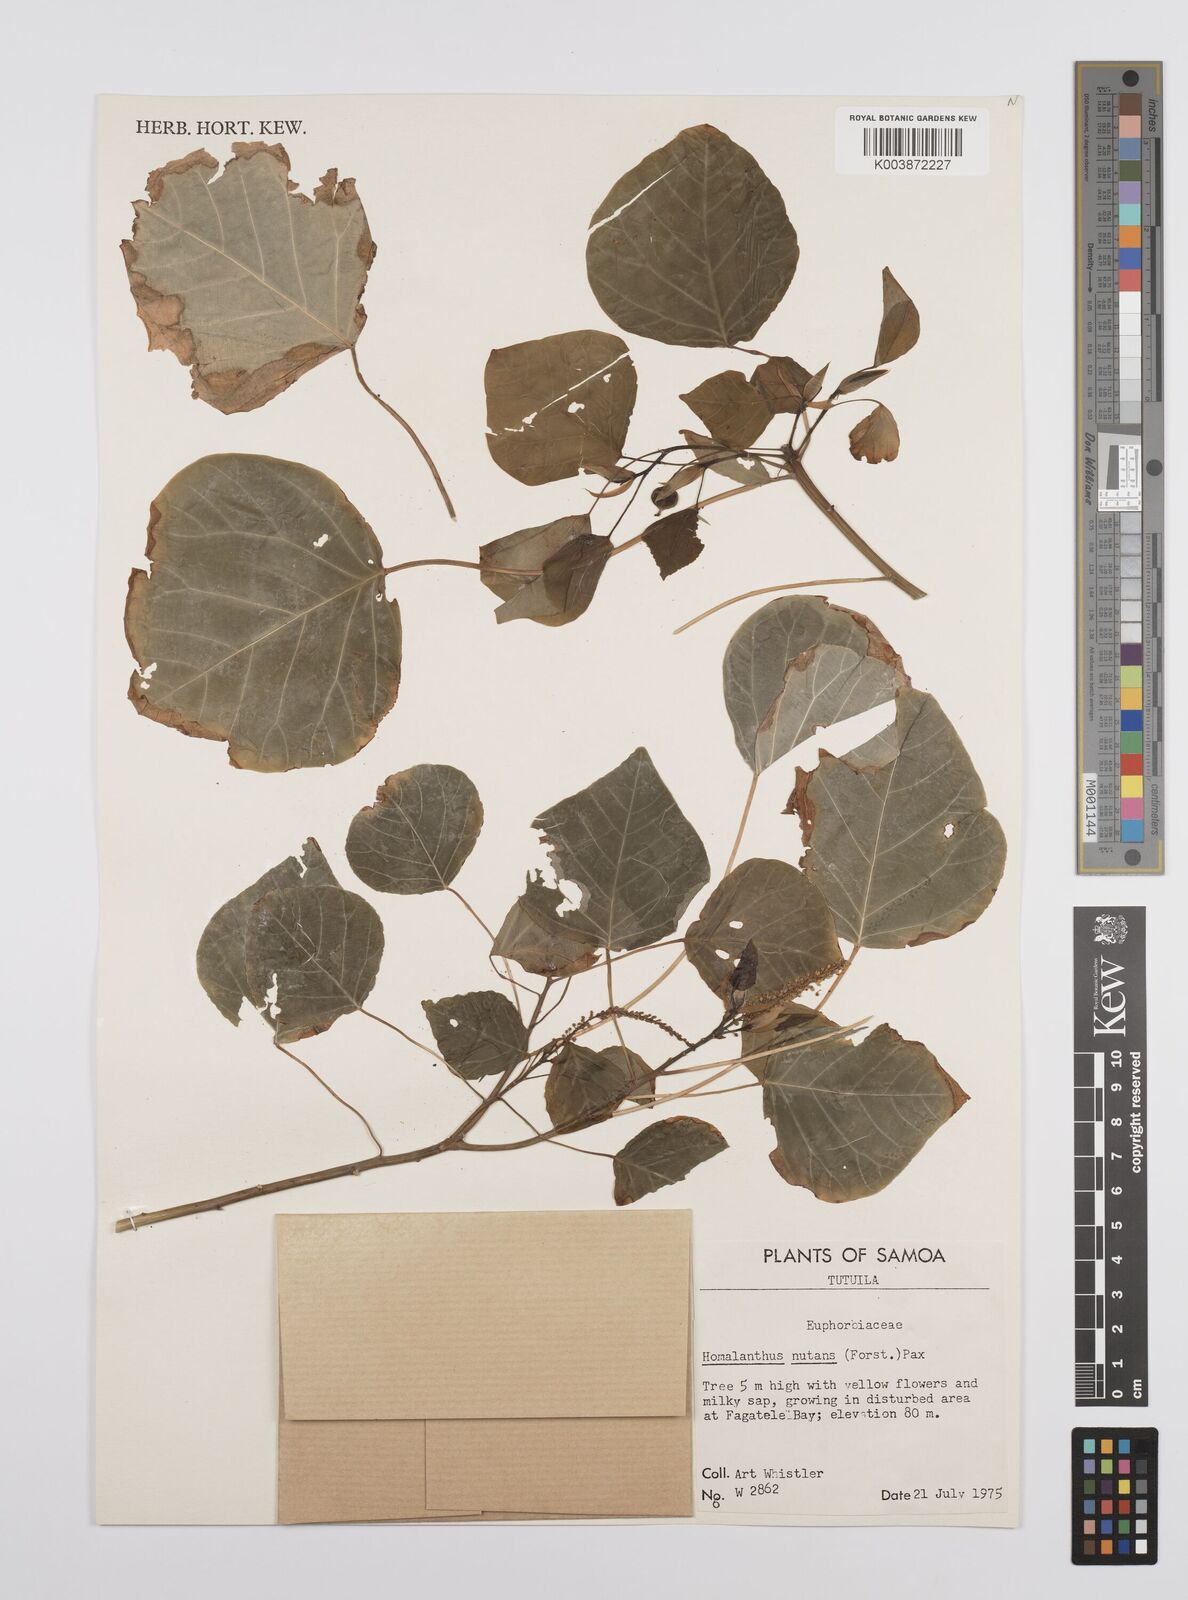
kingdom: Plantae
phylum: Tracheophyta
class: Magnoliopsida
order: Malpighiales
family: Euphorbiaceae
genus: Homalanthus
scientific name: Homalanthus nutans
